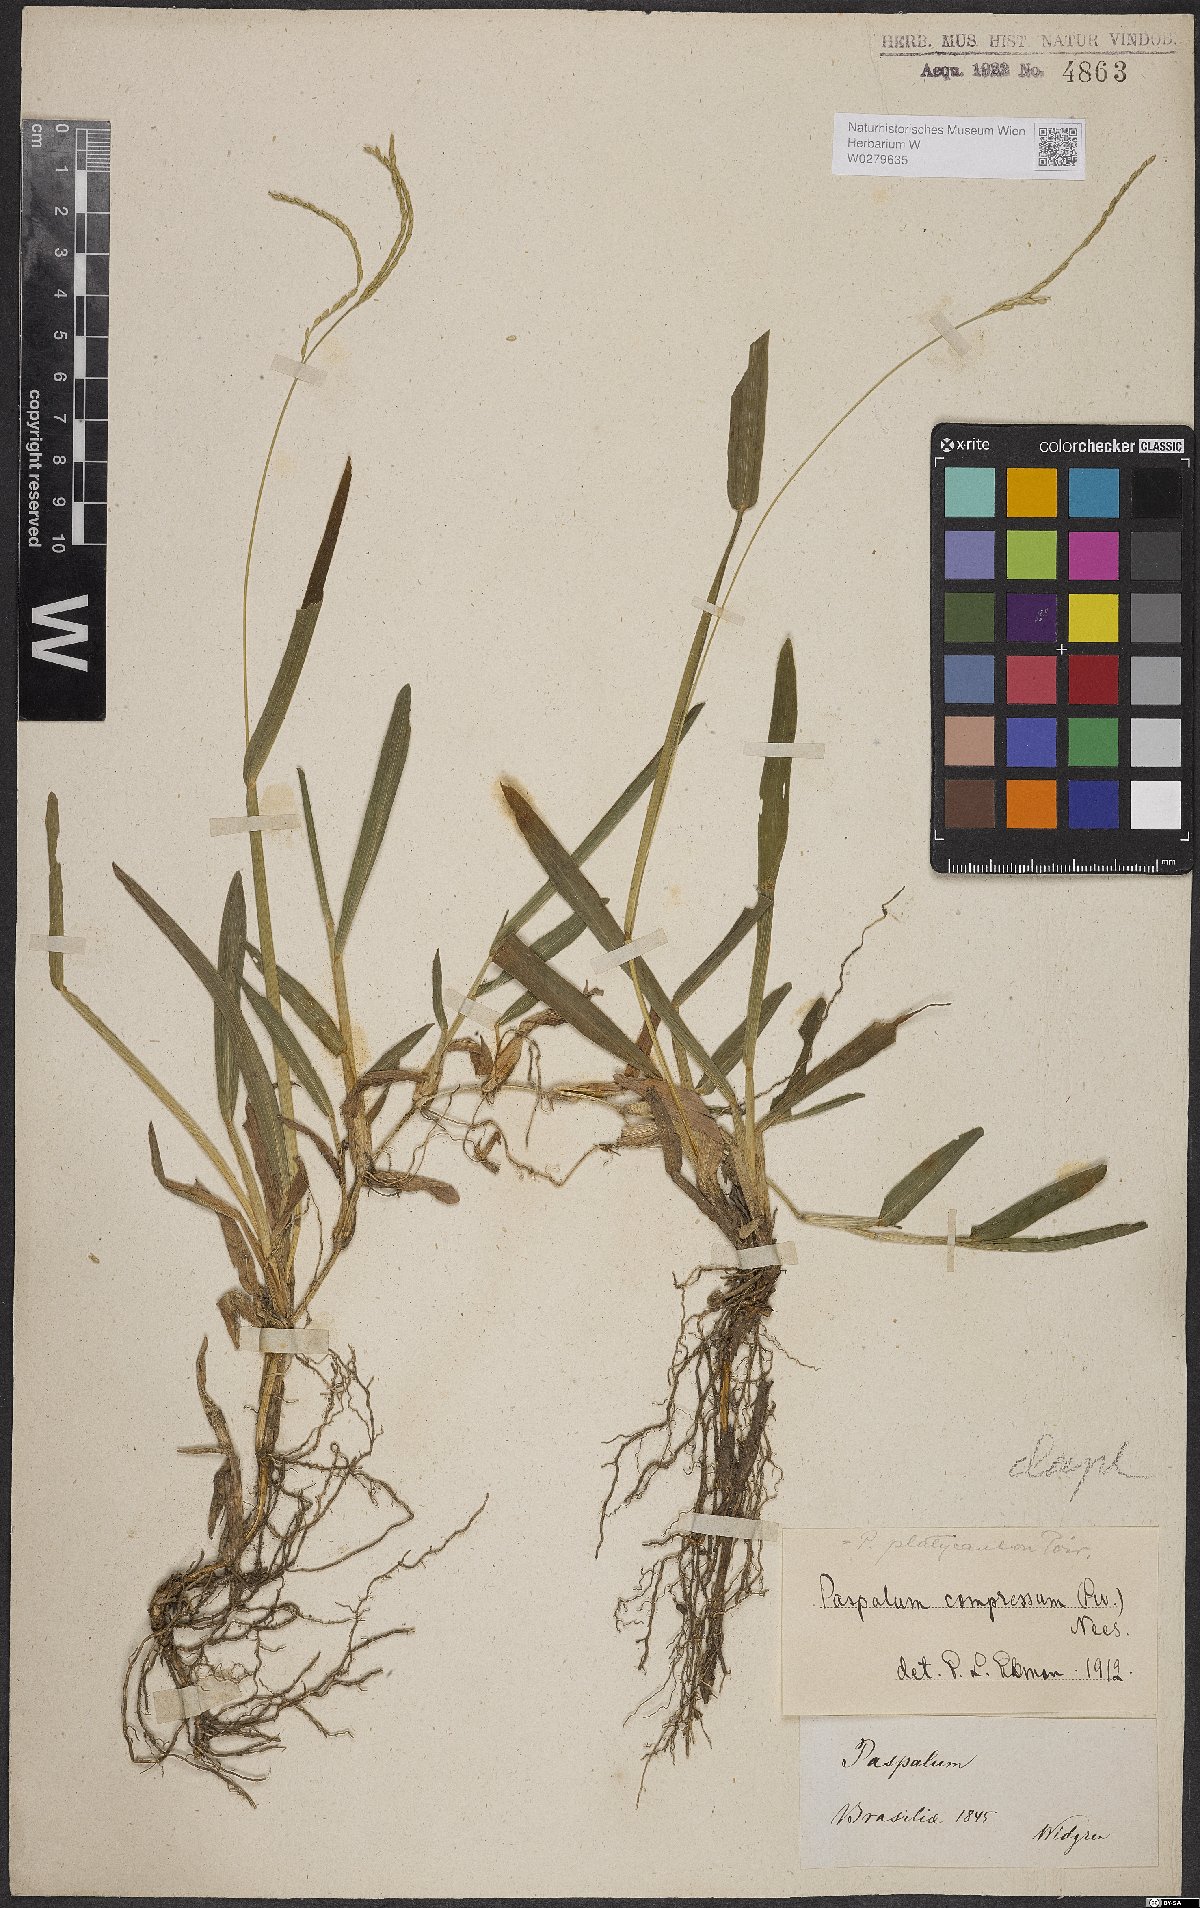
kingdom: Plantae
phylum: Tracheophyta
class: Liliopsida
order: Poales
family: Poaceae
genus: Axonopus
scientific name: Axonopus compressus
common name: American carpet grass
